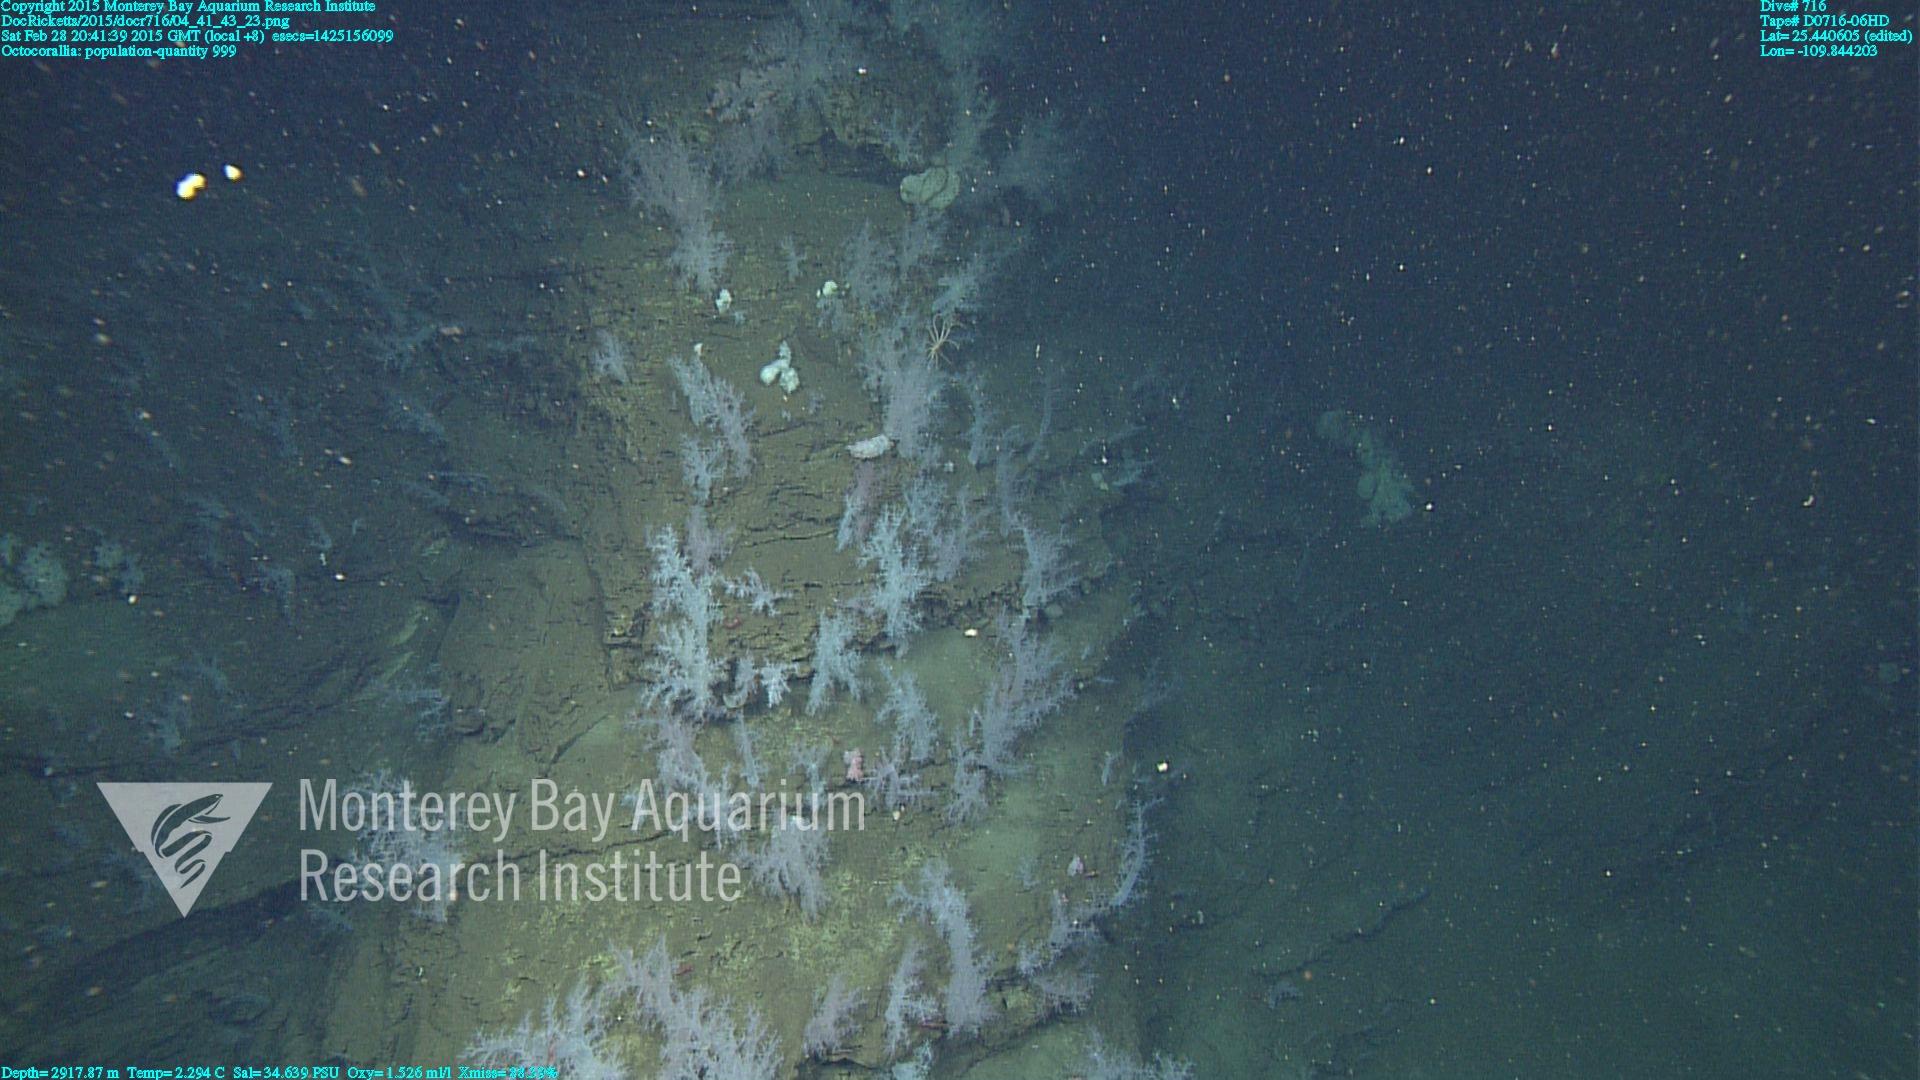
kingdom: Animalia
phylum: Cnidaria
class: Anthozoa
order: Malacalcyonacea
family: Alcyoniidae
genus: Gersemia
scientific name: Gersemia juliepackardae
